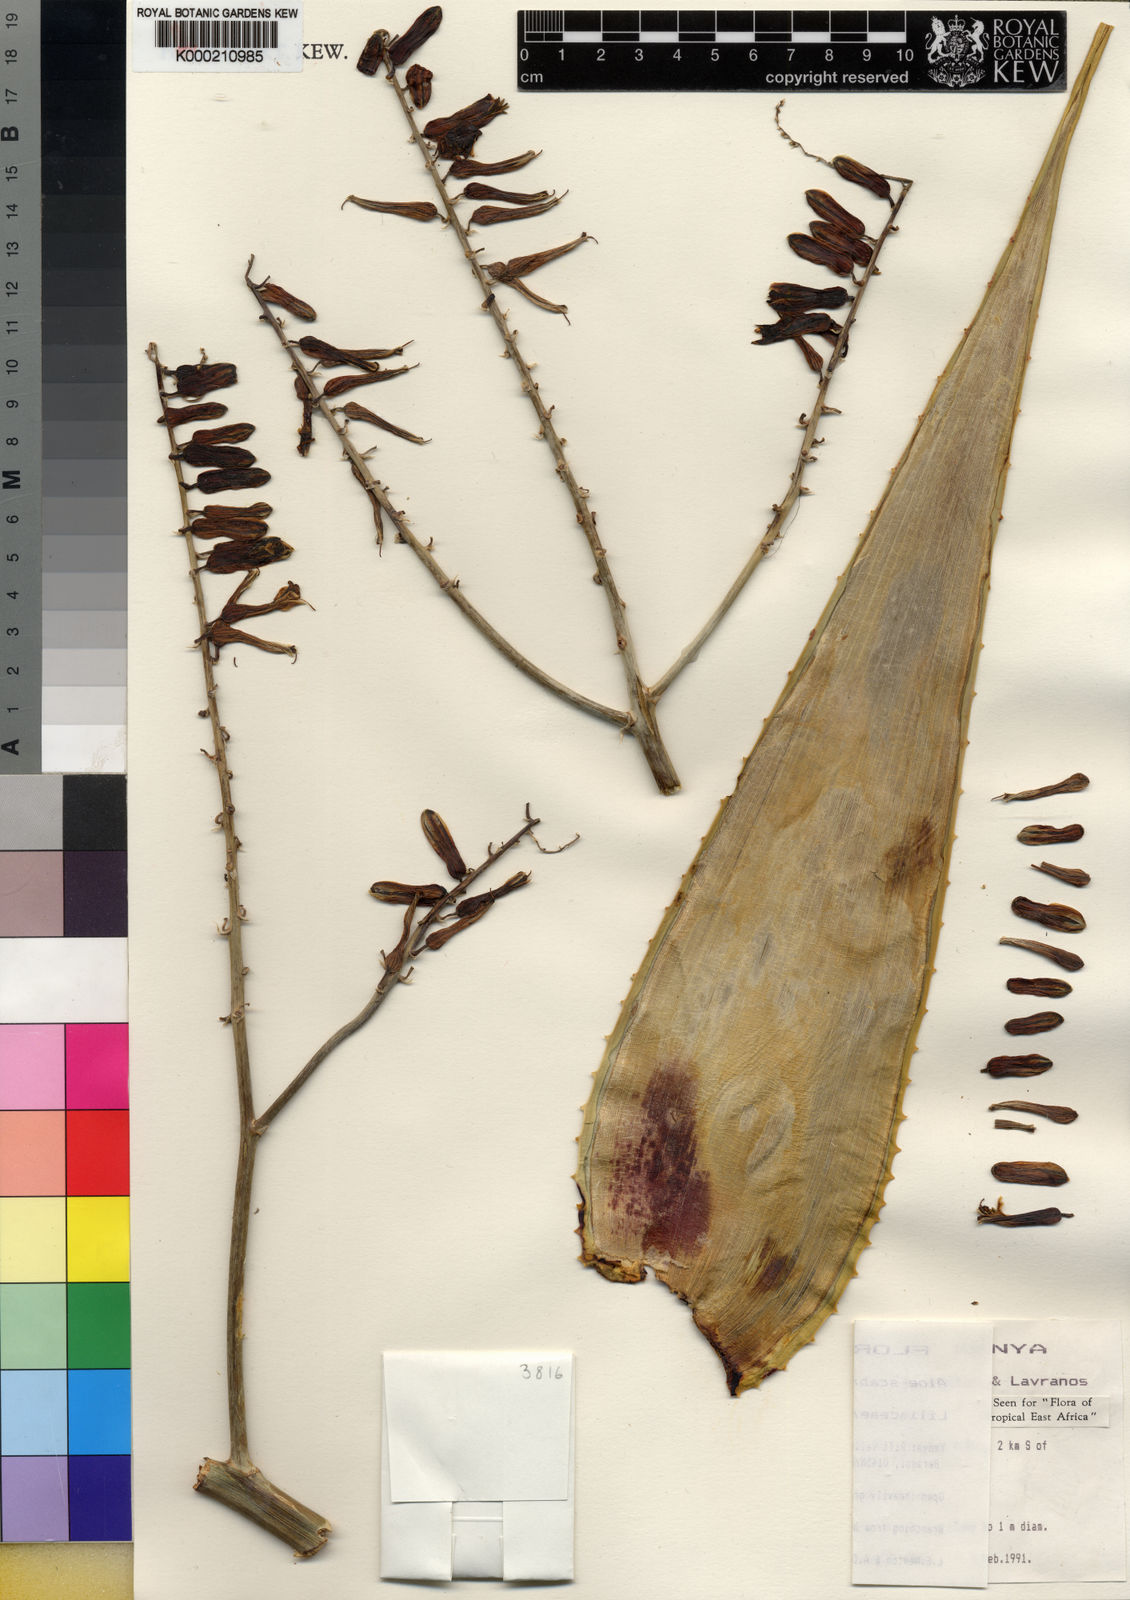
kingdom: Plantae
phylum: Tracheophyta
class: Liliopsida
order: Asparagales
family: Asphodelaceae
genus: Aloe
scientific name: Aloe scabrifolia
